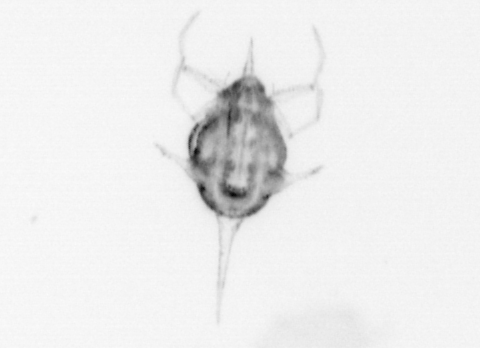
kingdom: Animalia
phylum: Arthropoda
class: Malacostraca
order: Decapoda
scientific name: Decapoda
